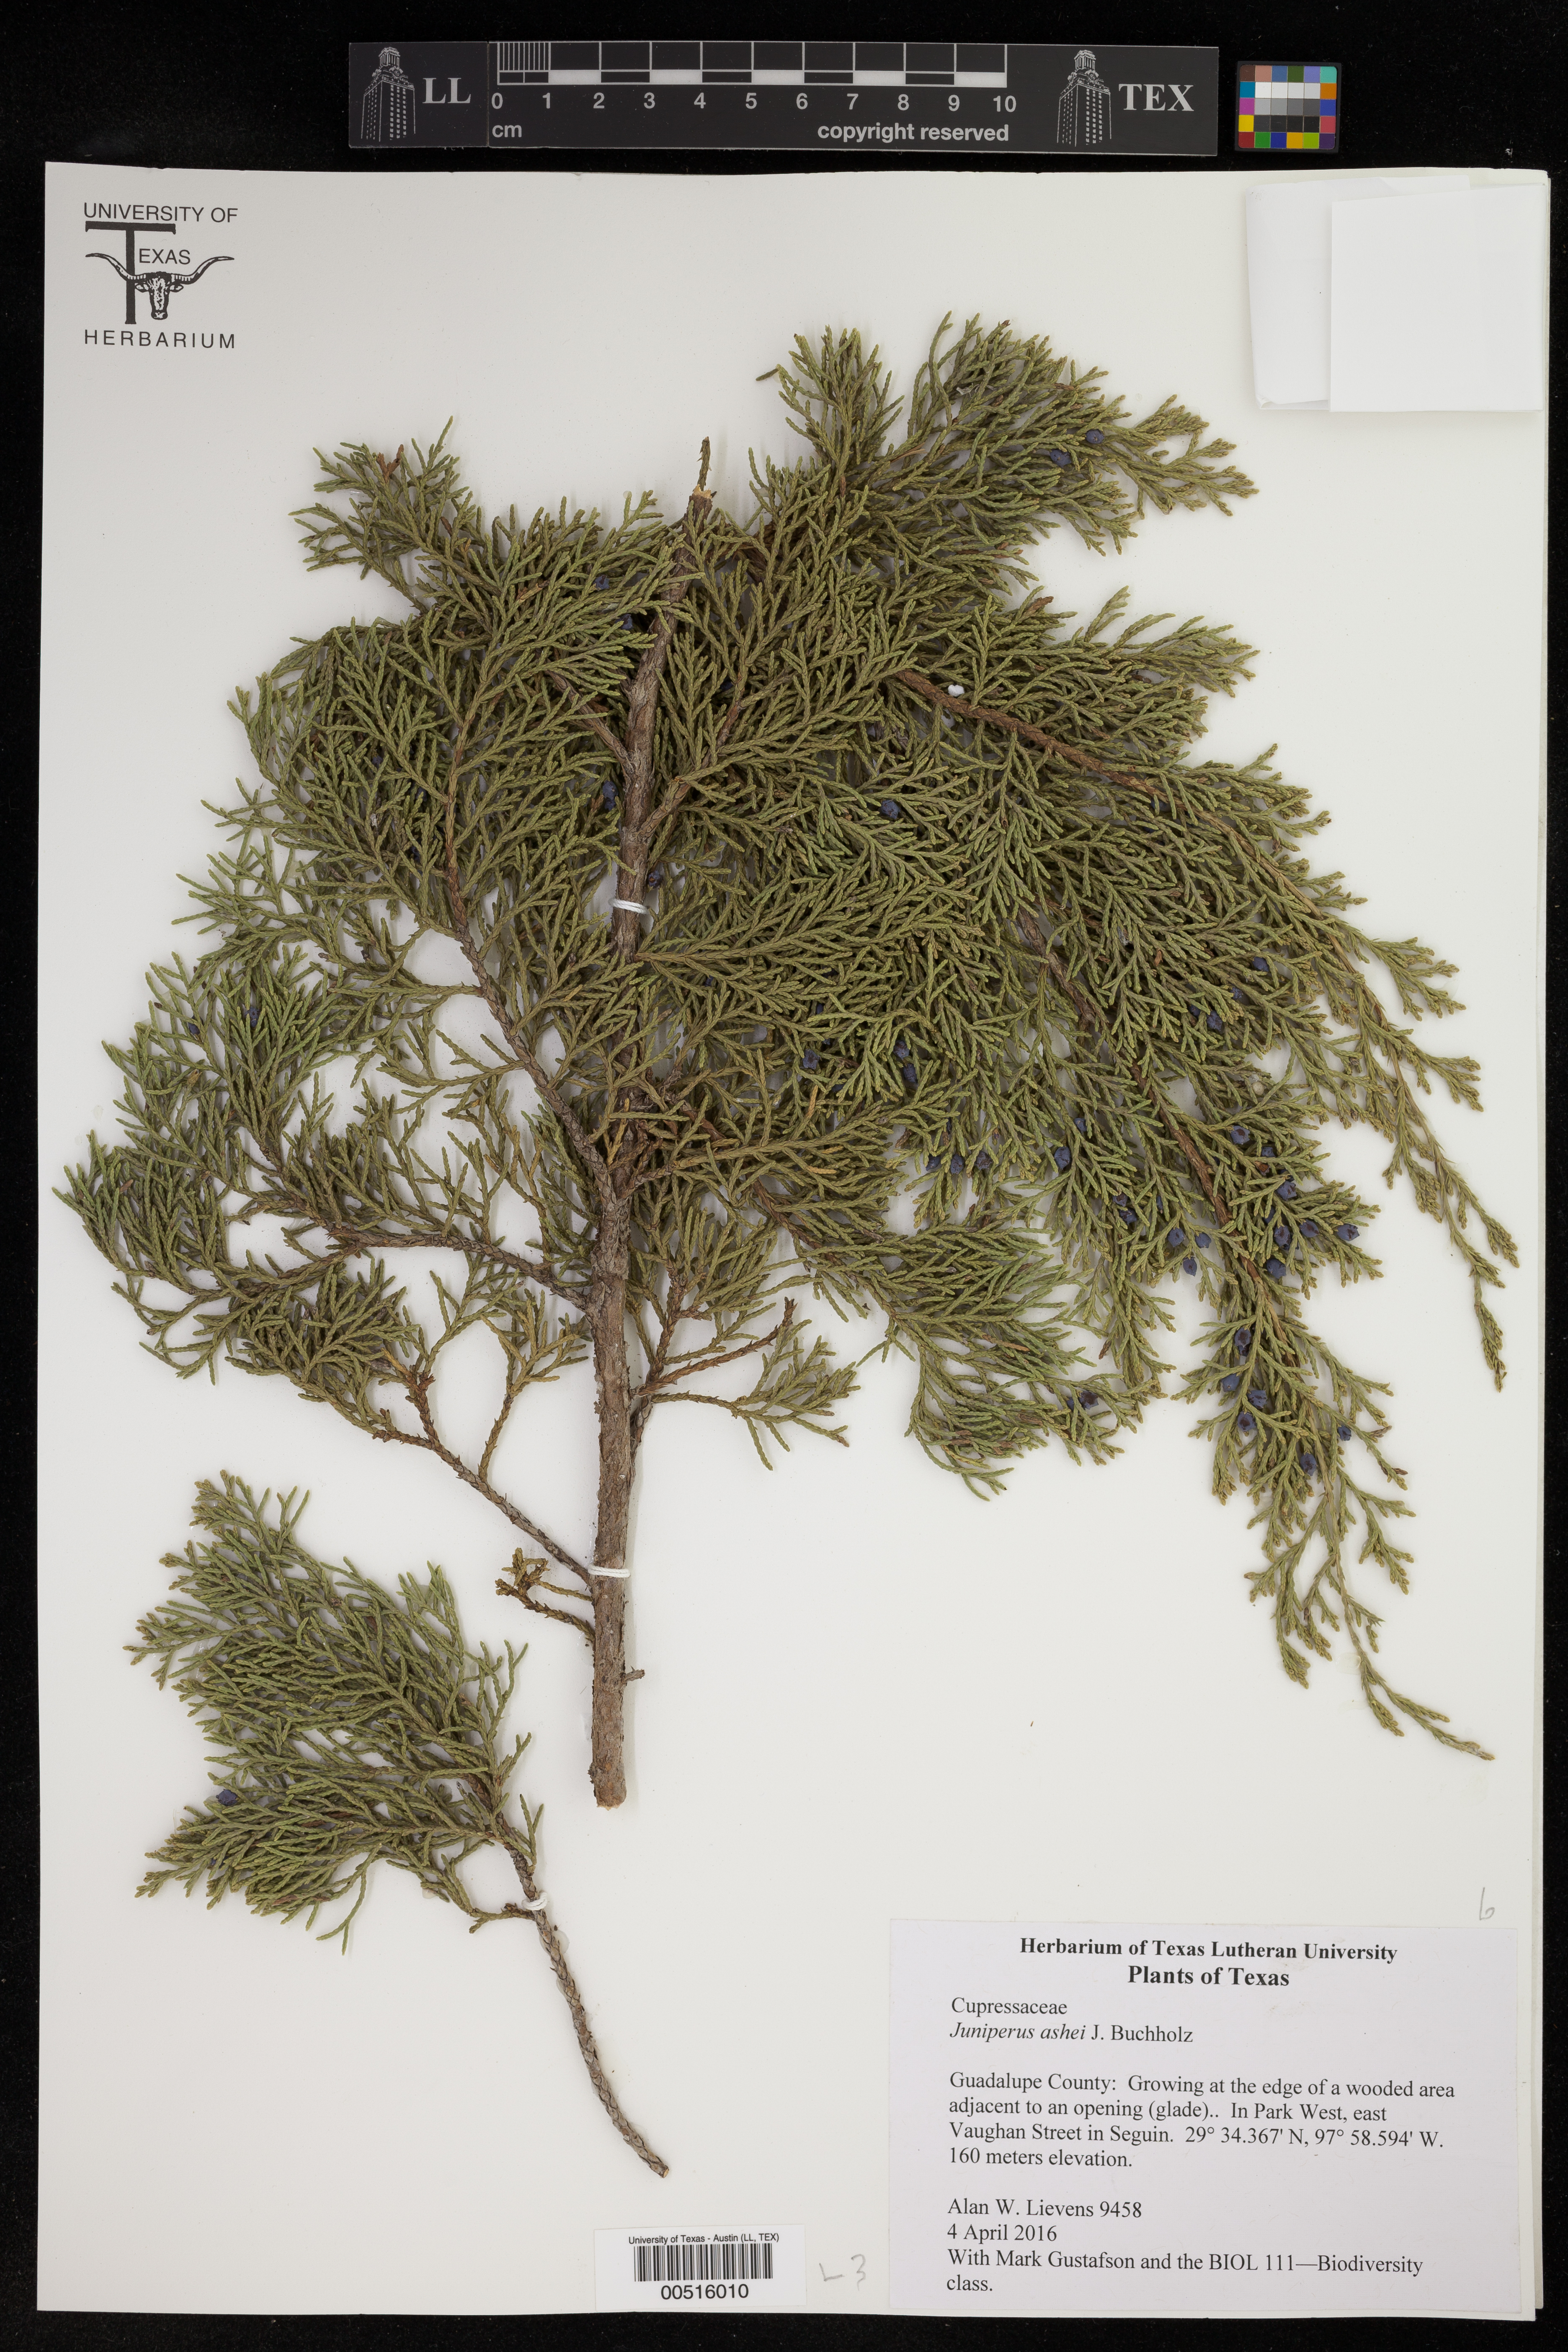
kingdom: Plantae
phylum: Tracheophyta
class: Pinopsida
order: Pinales
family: Cupressaceae
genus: Juniperus
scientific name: Juniperus ashei
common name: Mexican juniper
